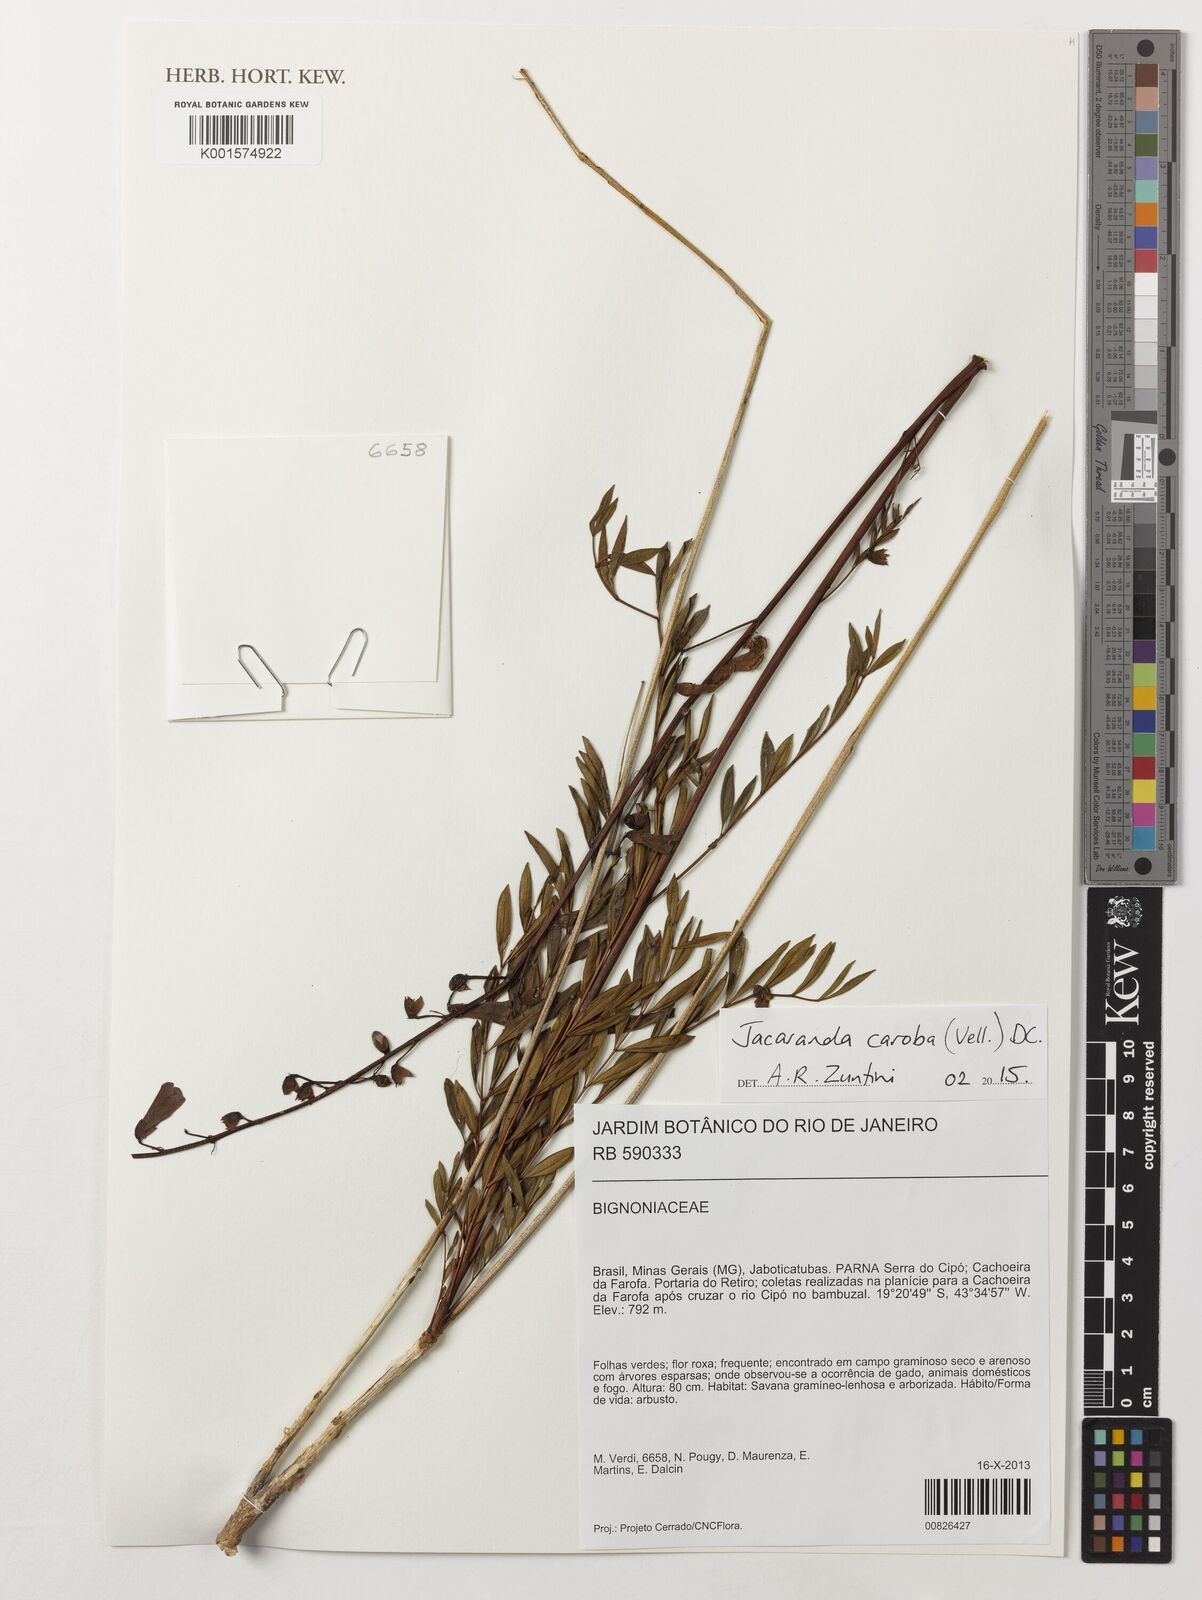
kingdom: Plantae
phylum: Tracheophyta
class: Magnoliopsida
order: Lamiales
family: Bignoniaceae
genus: Jacaranda
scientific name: Jacaranda caroba
